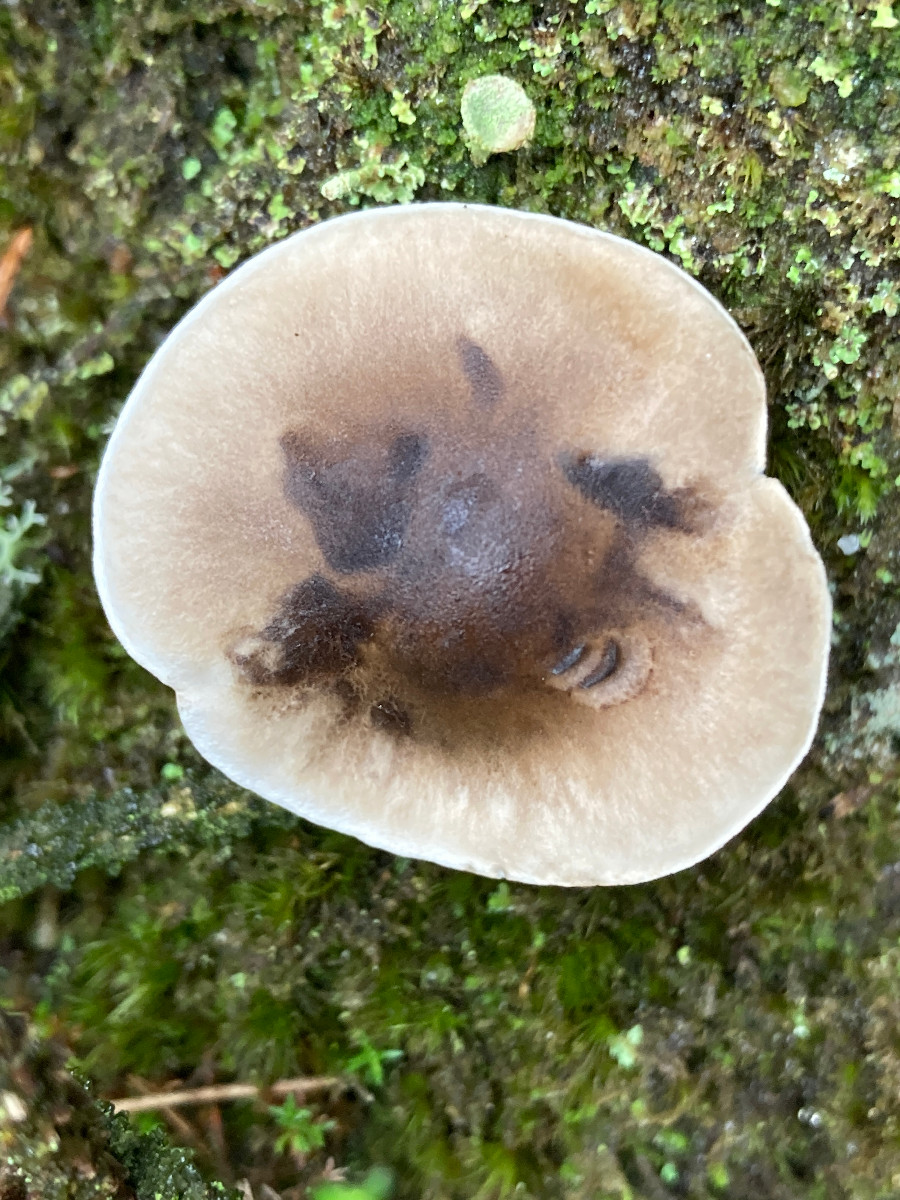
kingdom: Fungi
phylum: Basidiomycota
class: Agaricomycetes
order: Agaricales
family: Tricholomataceae
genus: Tricholoma
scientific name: Tricholoma
